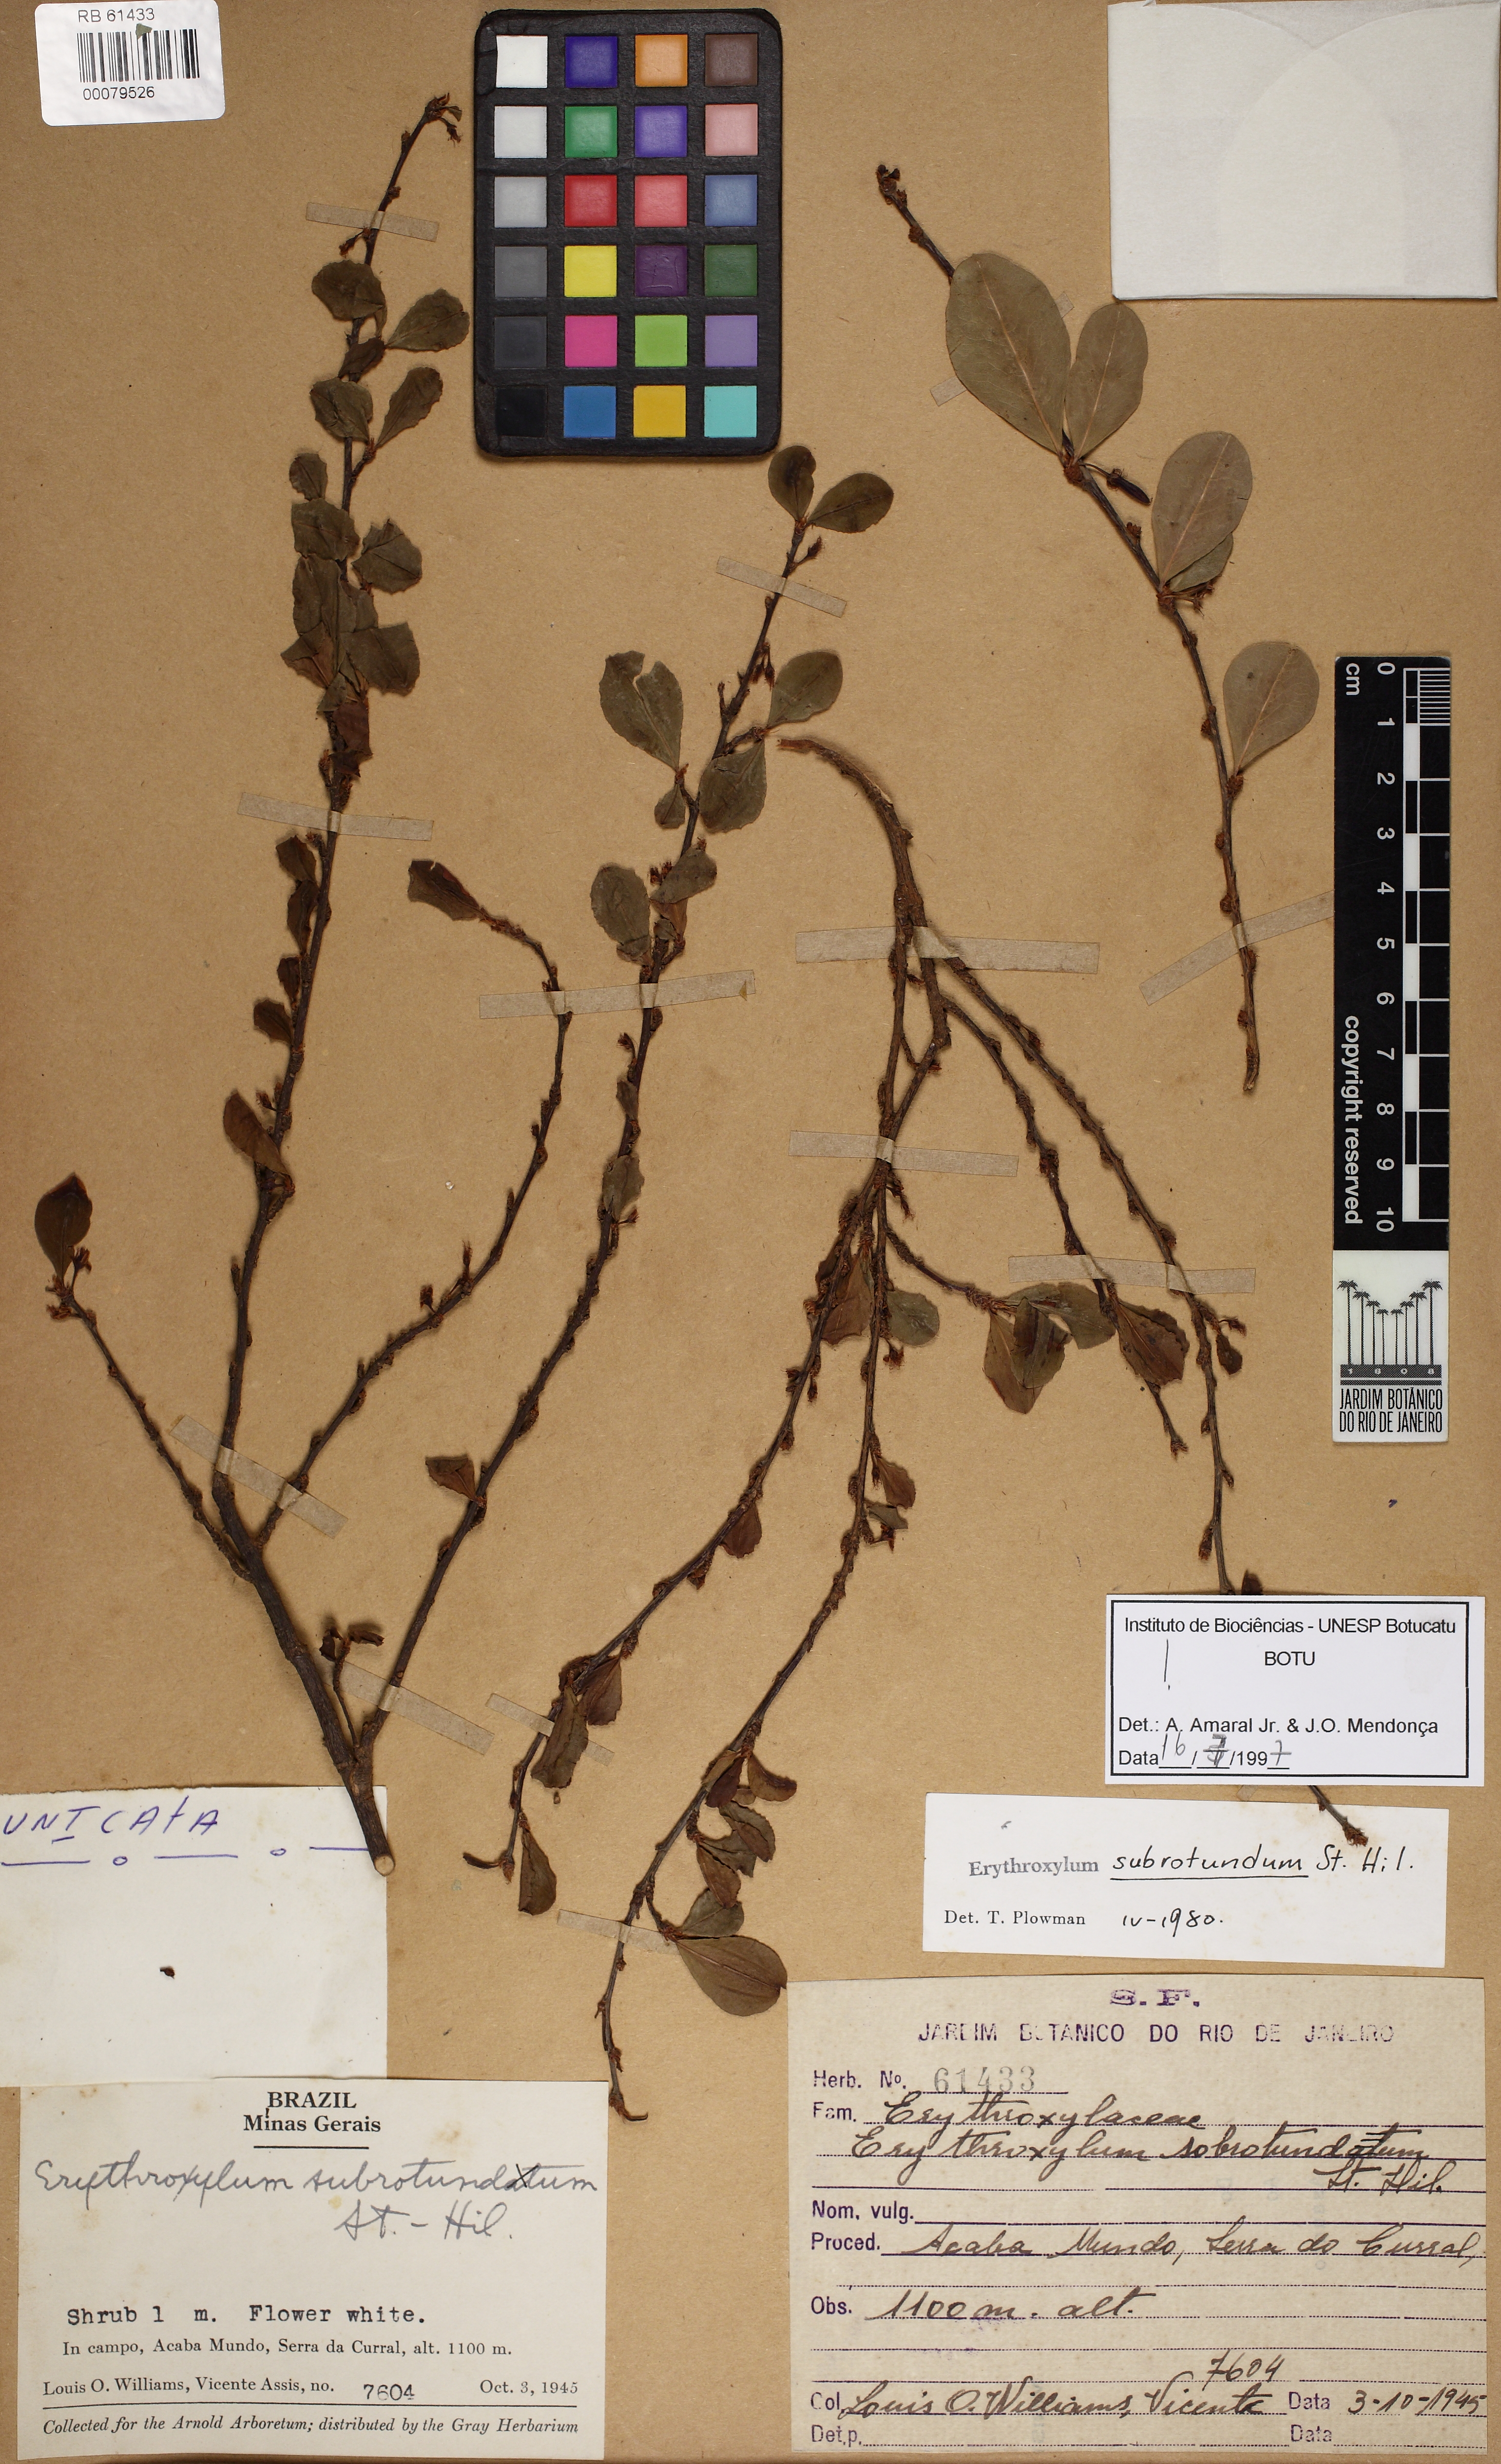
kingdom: Plantae
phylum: Tracheophyta
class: Magnoliopsida
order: Malpighiales
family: Erythroxylaceae
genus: Erythroxylum
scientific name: Erythroxylum subrotundum
